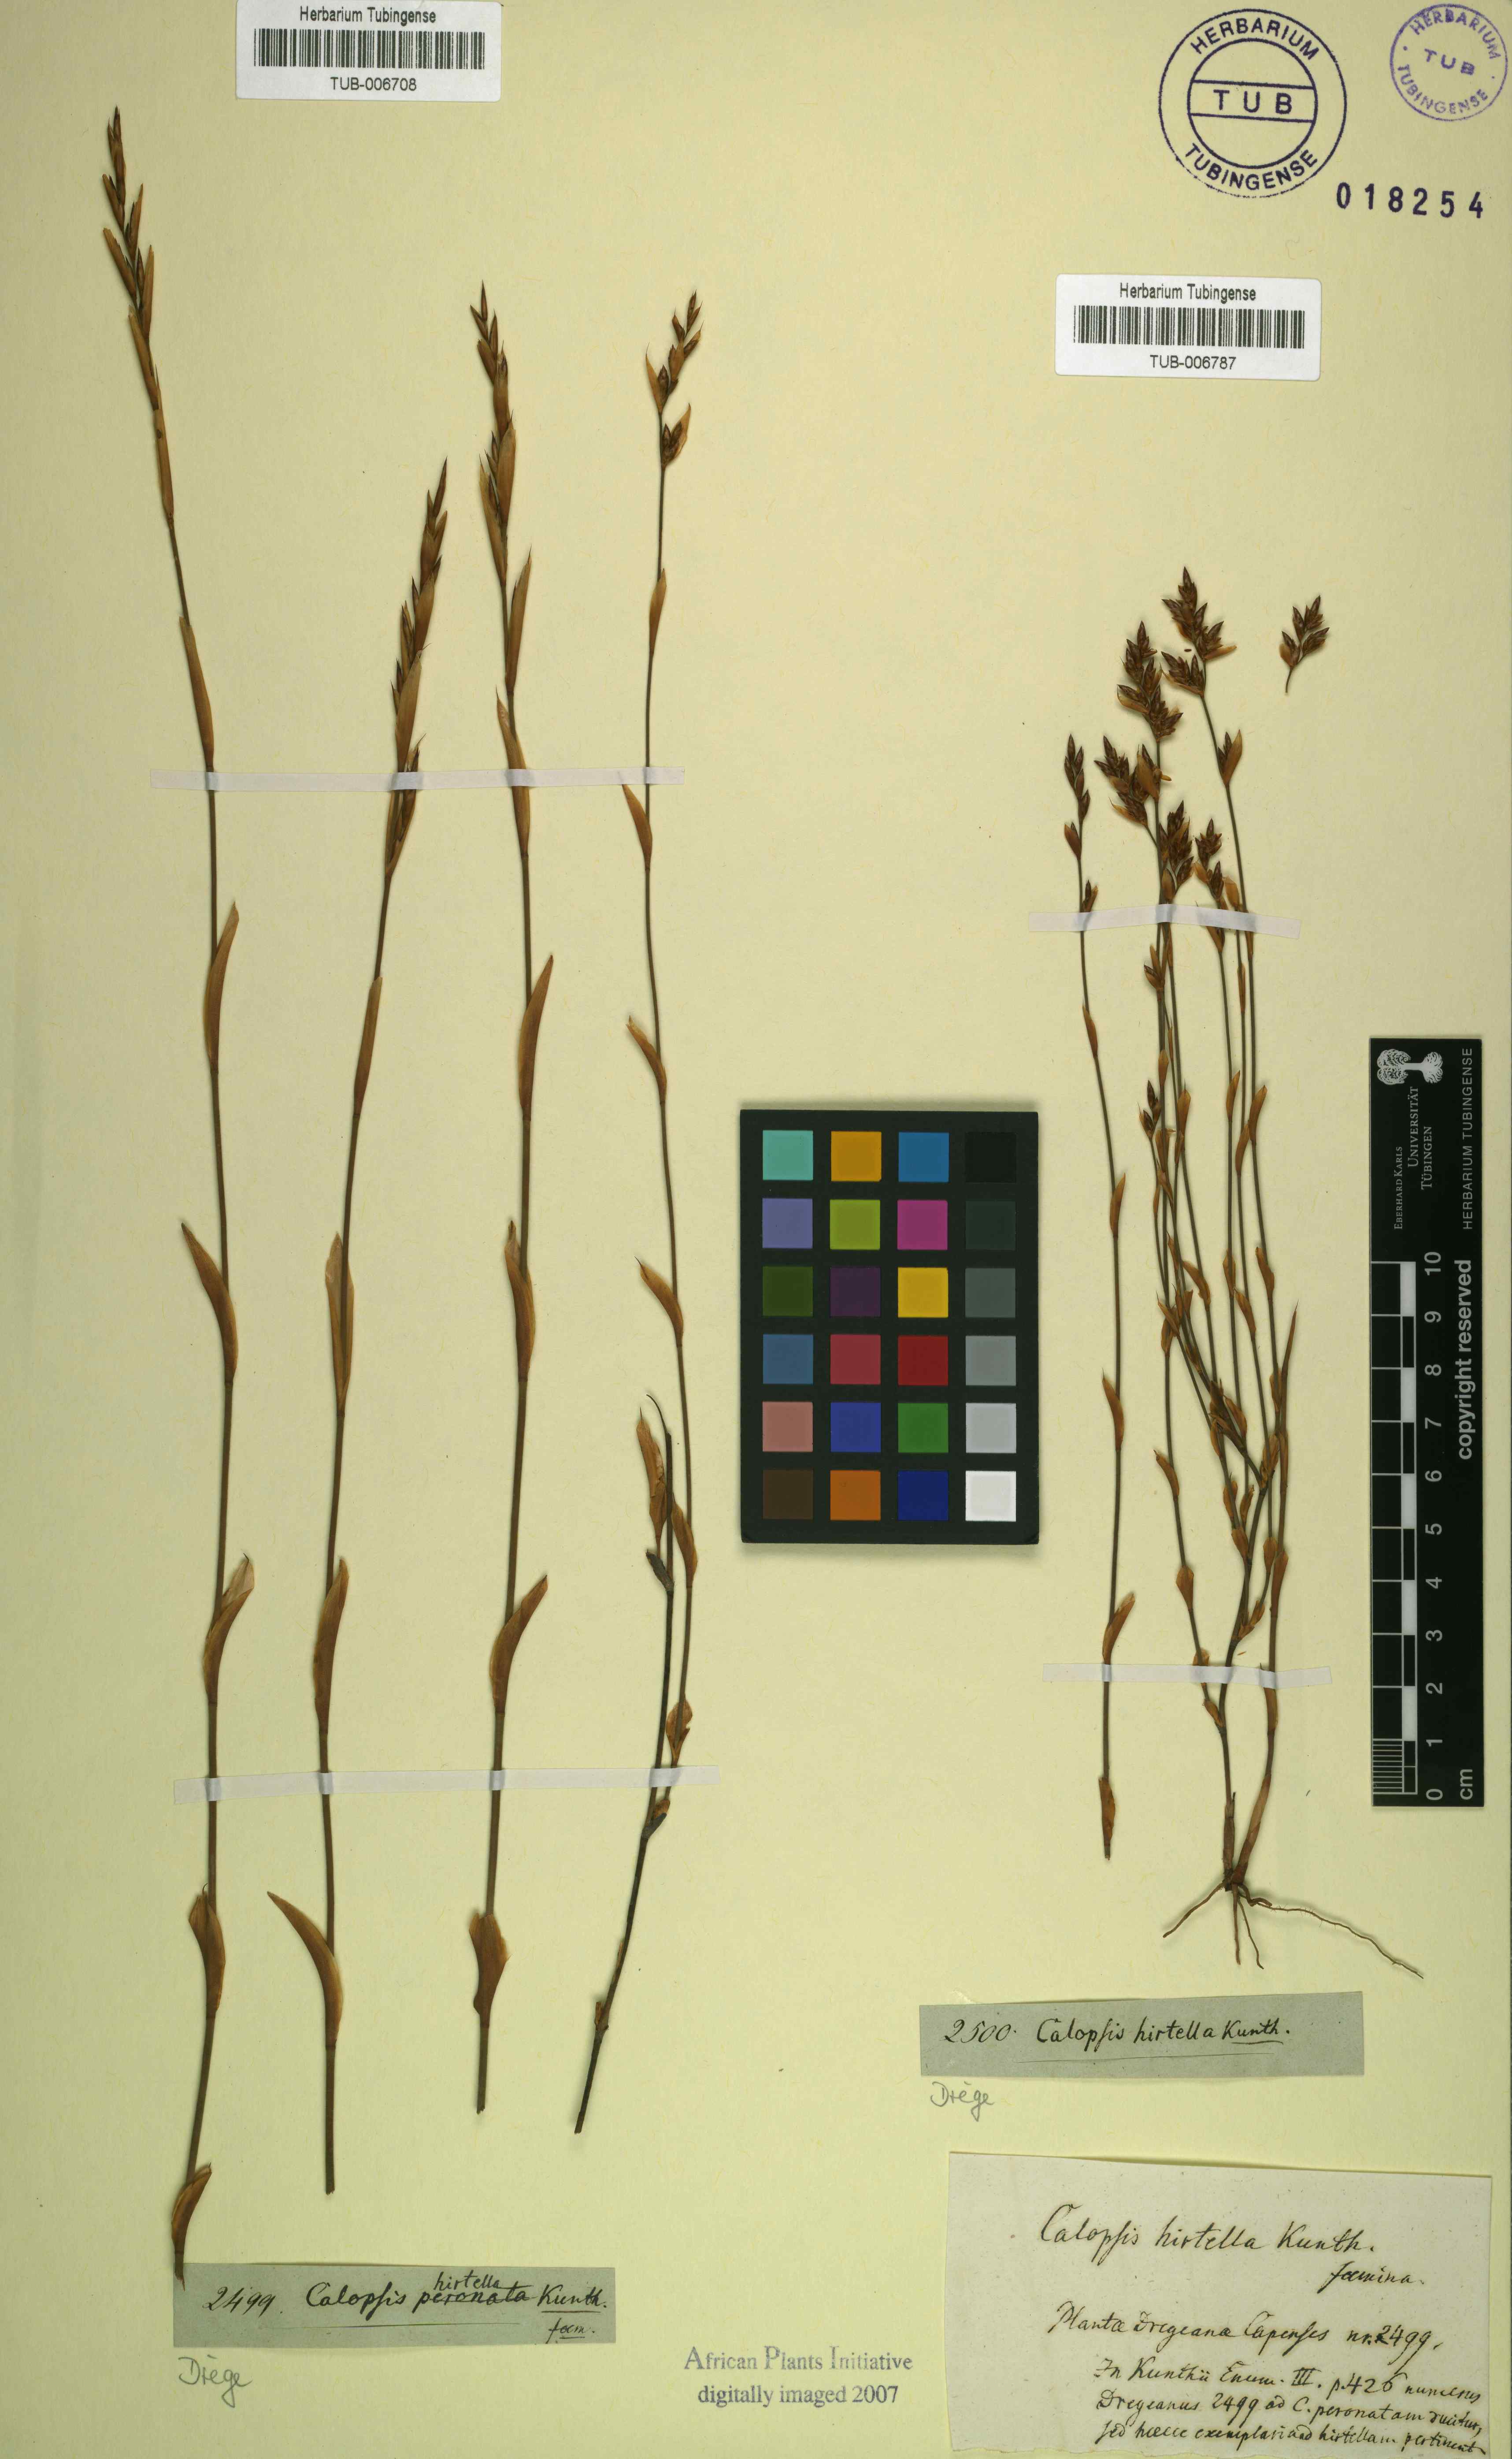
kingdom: Plantae
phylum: Tracheophyta
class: Liliopsida
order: Poales
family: Restionaceae
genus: Restio
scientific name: Restio vimineus
